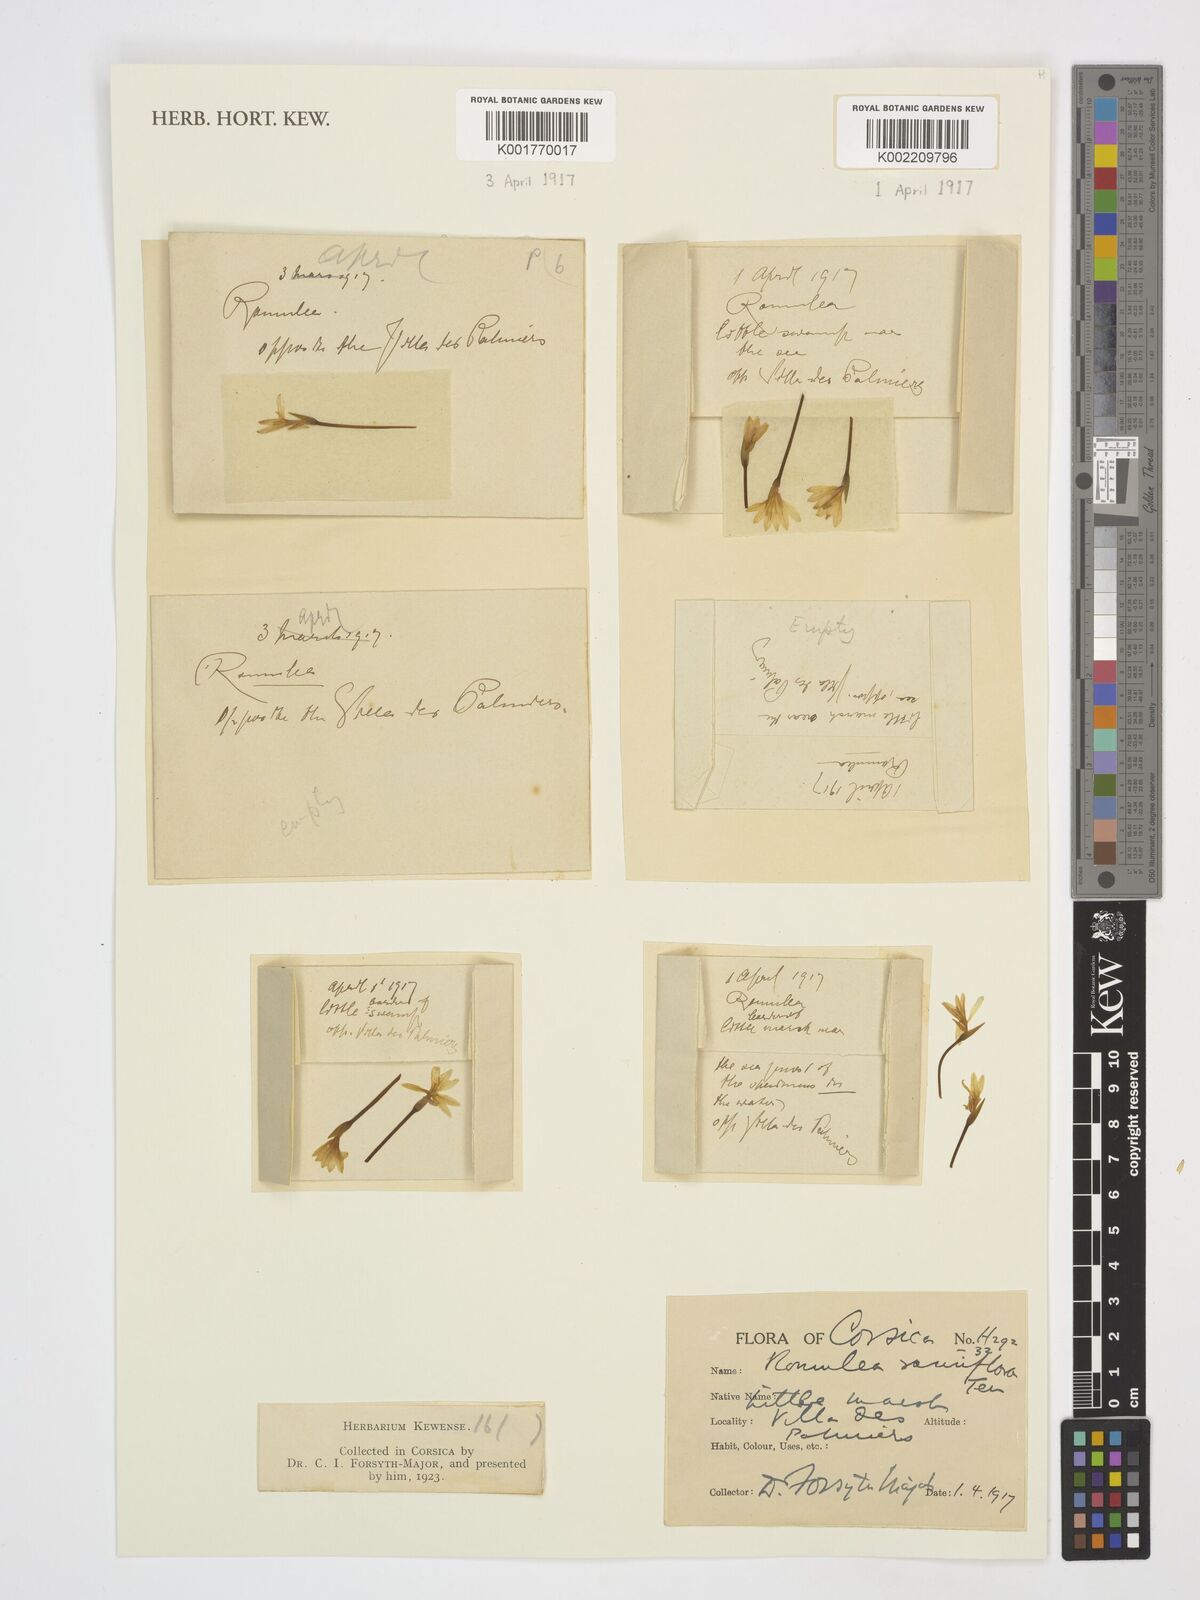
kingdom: Plantae
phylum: Tracheophyta
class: Liliopsida
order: Asparagales
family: Iridaceae
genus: Romulea
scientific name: Romulea columnae
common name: Sand-crocus
